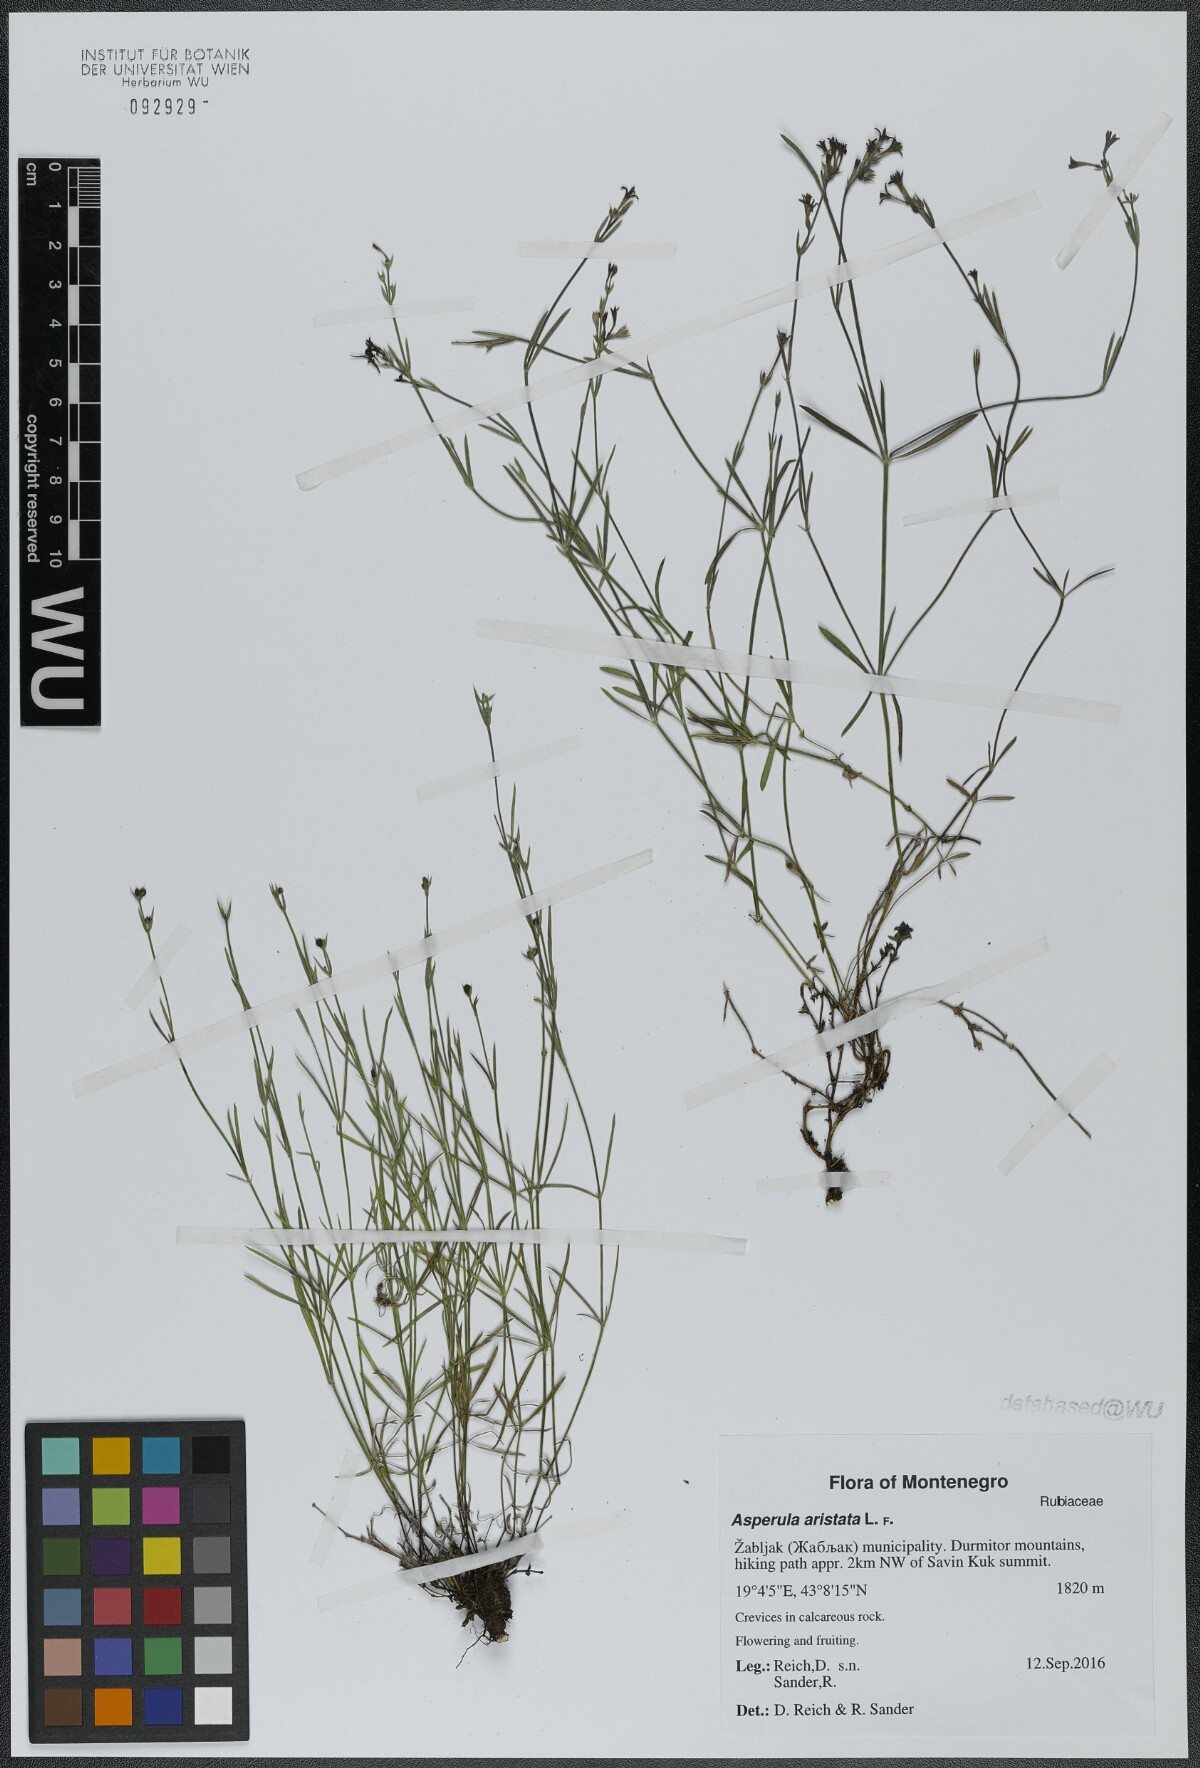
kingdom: Plantae
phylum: Tracheophyta
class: Magnoliopsida
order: Gentianales
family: Rubiaceae
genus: Cynanchica
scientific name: Cynanchica aristata
